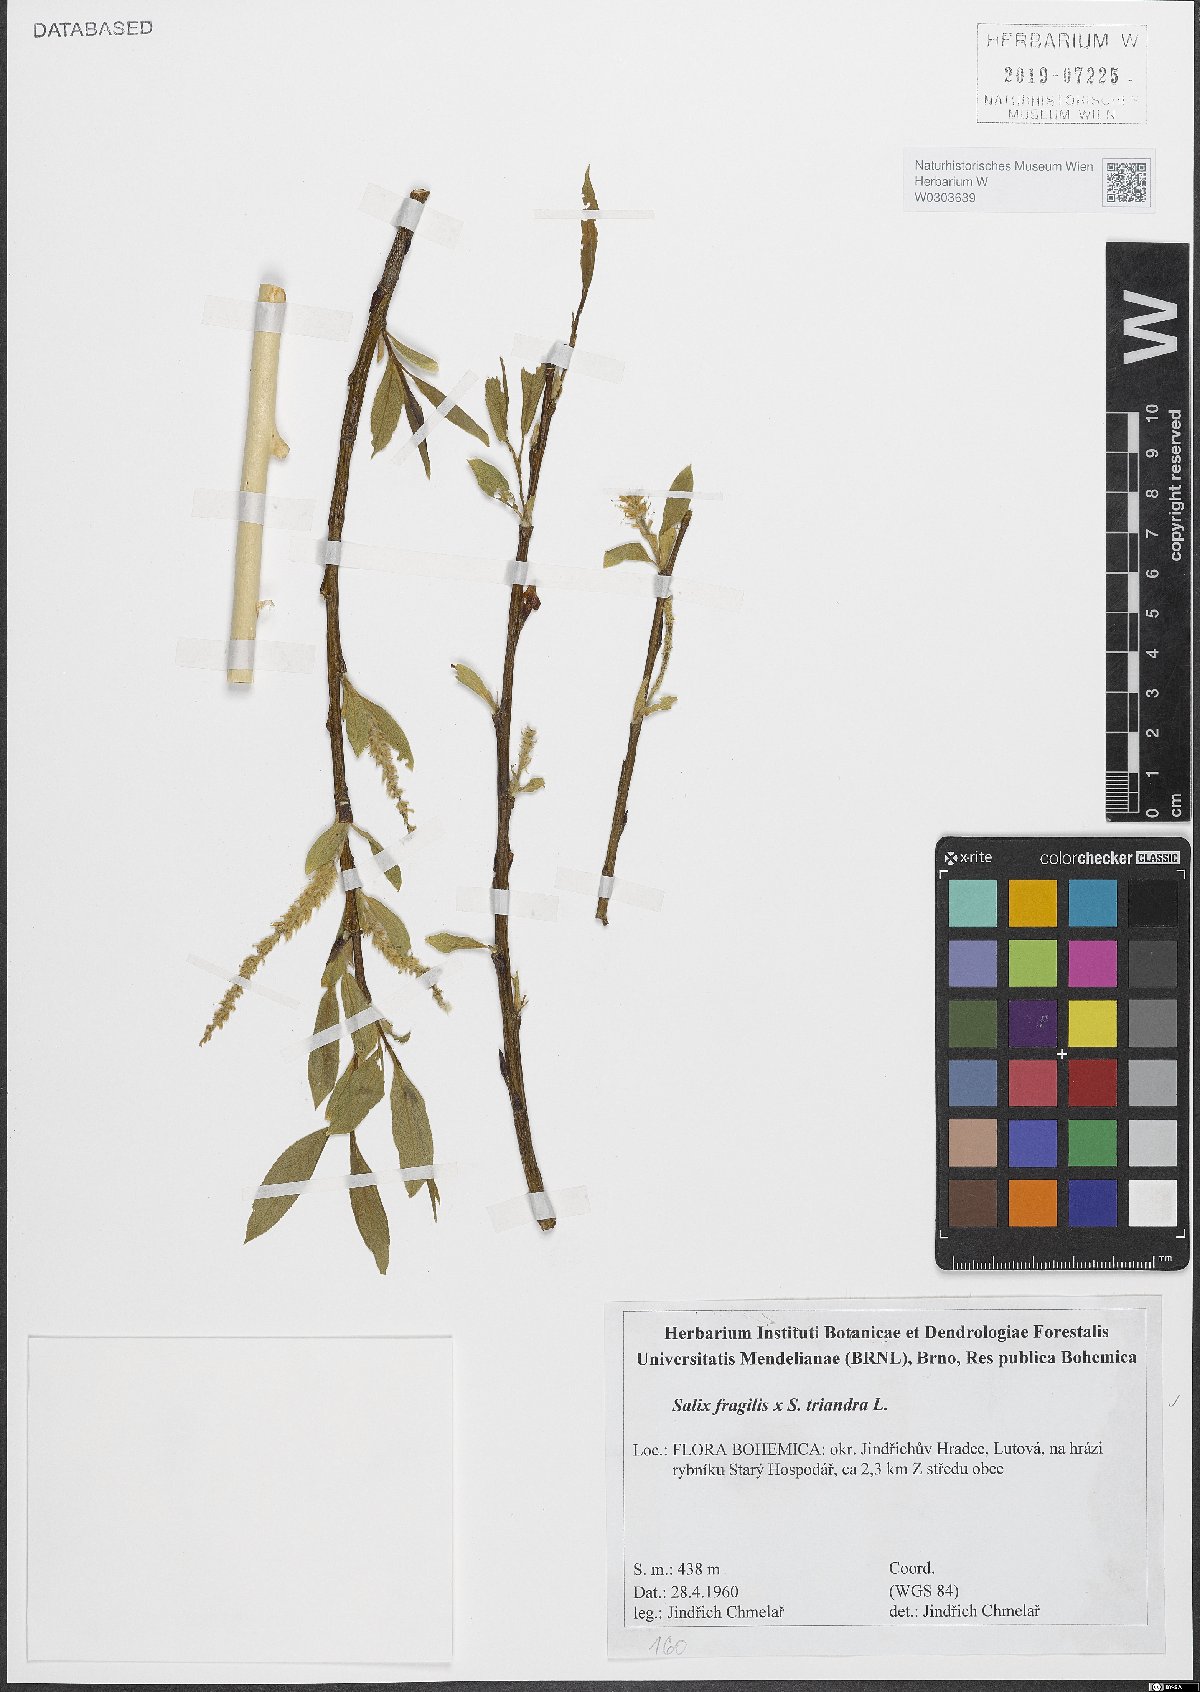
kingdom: Plantae
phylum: Tracheophyta
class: Magnoliopsida
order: Malpighiales
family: Salicaceae
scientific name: Salicaceae
